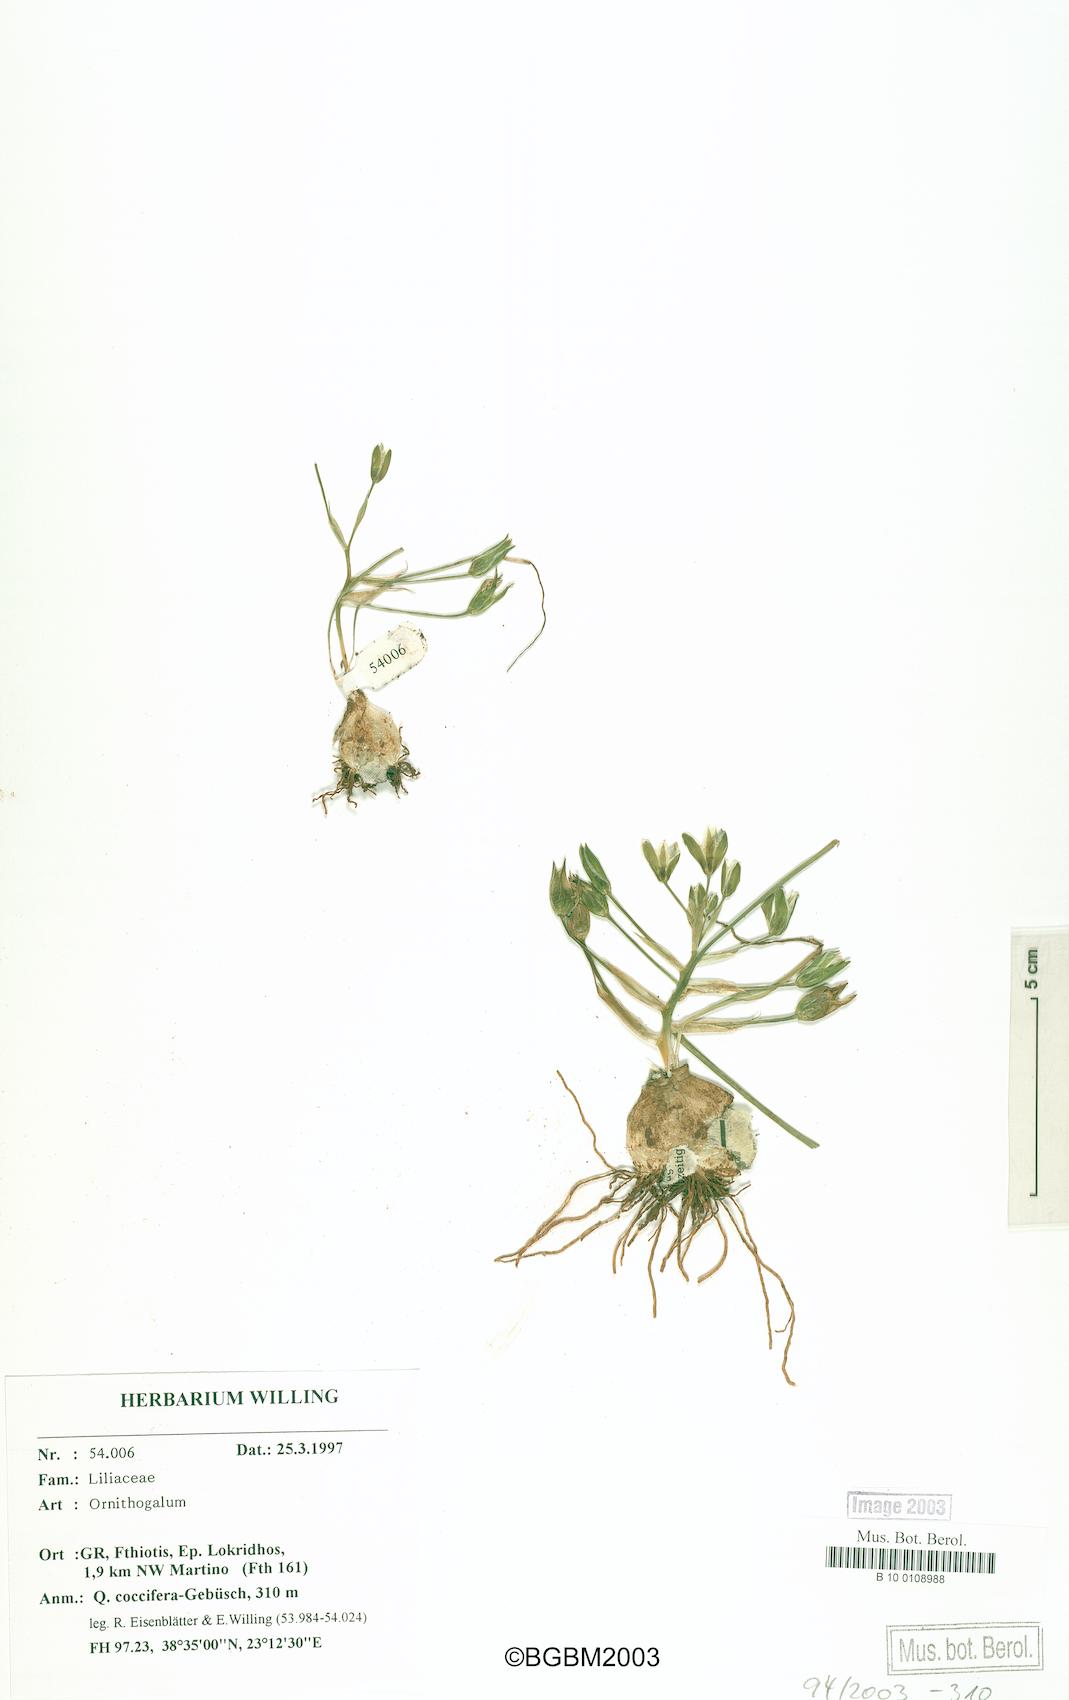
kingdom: Plantae
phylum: Tracheophyta
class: Liliopsida
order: Asparagales
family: Asparagaceae
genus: Ornithogalum
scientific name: Ornithogalum
